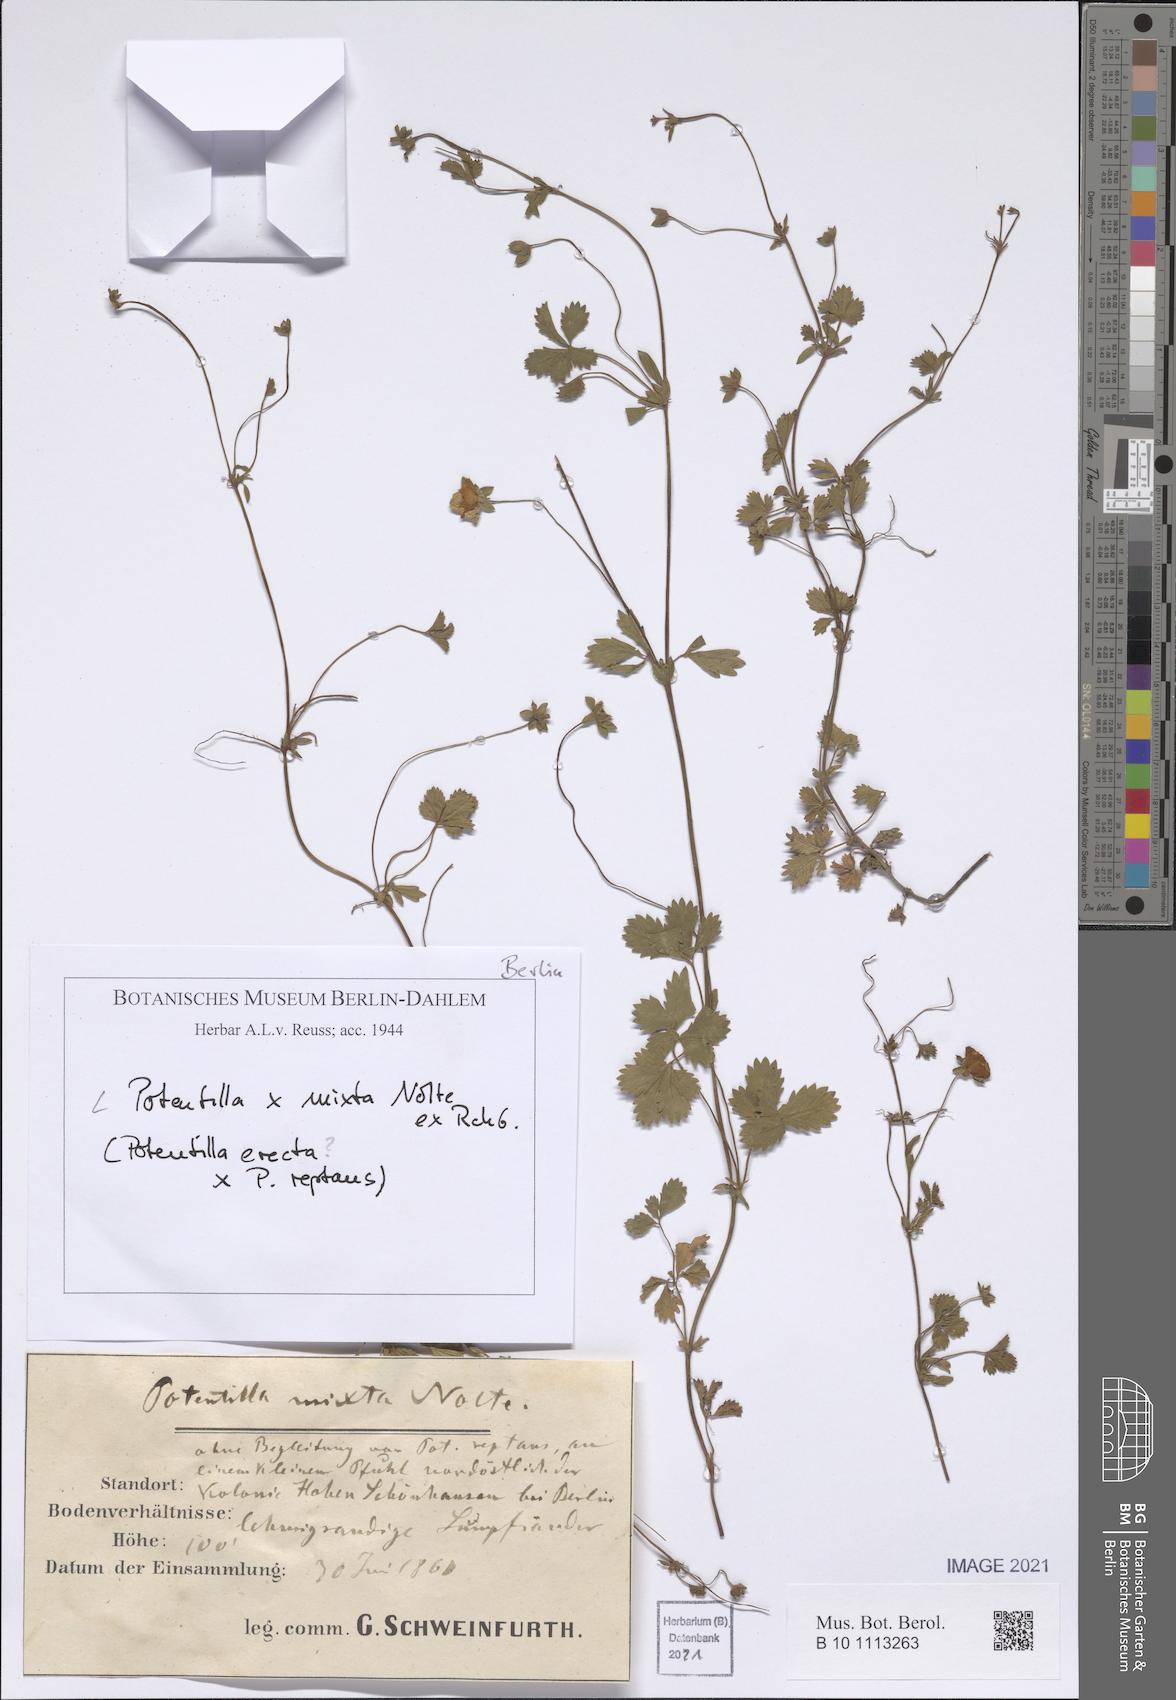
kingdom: Plantae
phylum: Tracheophyta
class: Magnoliopsida
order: Rosales
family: Rosaceae
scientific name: Rosaceae
